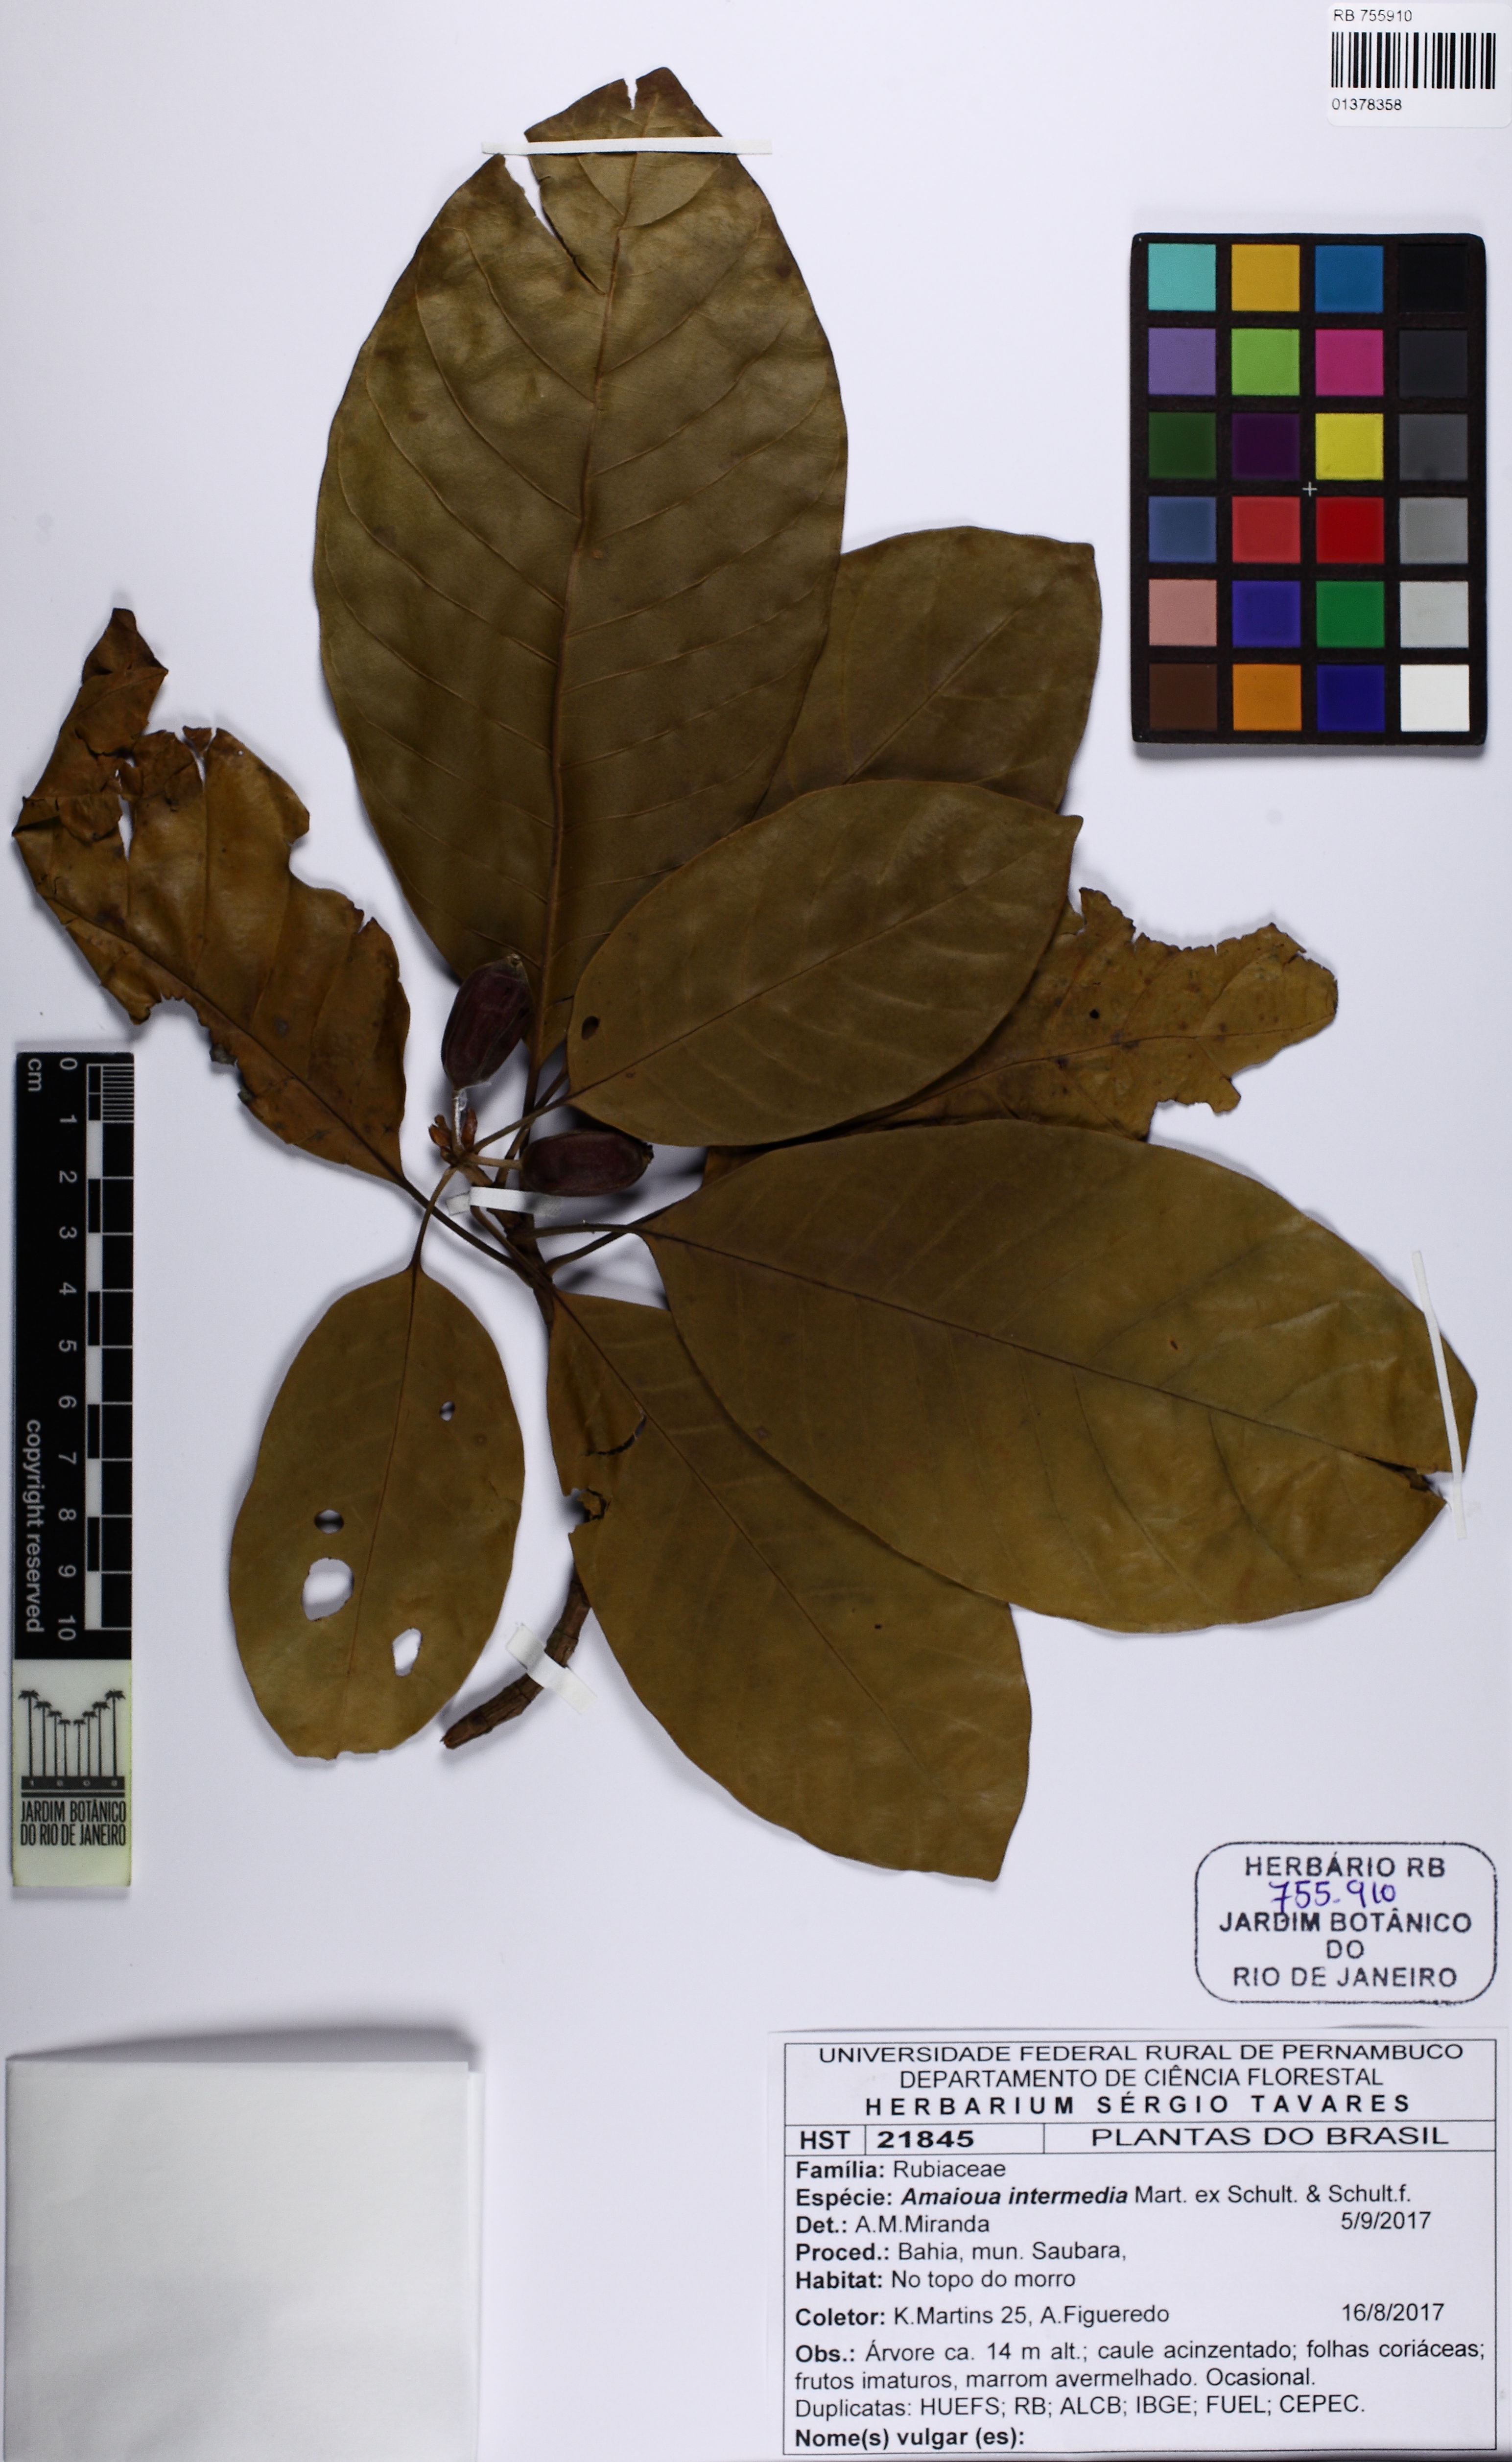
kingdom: Plantae
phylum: Tracheophyta
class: Magnoliopsida
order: Gentianales
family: Rubiaceae
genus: Amaioua
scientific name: Amaioua intermedia
